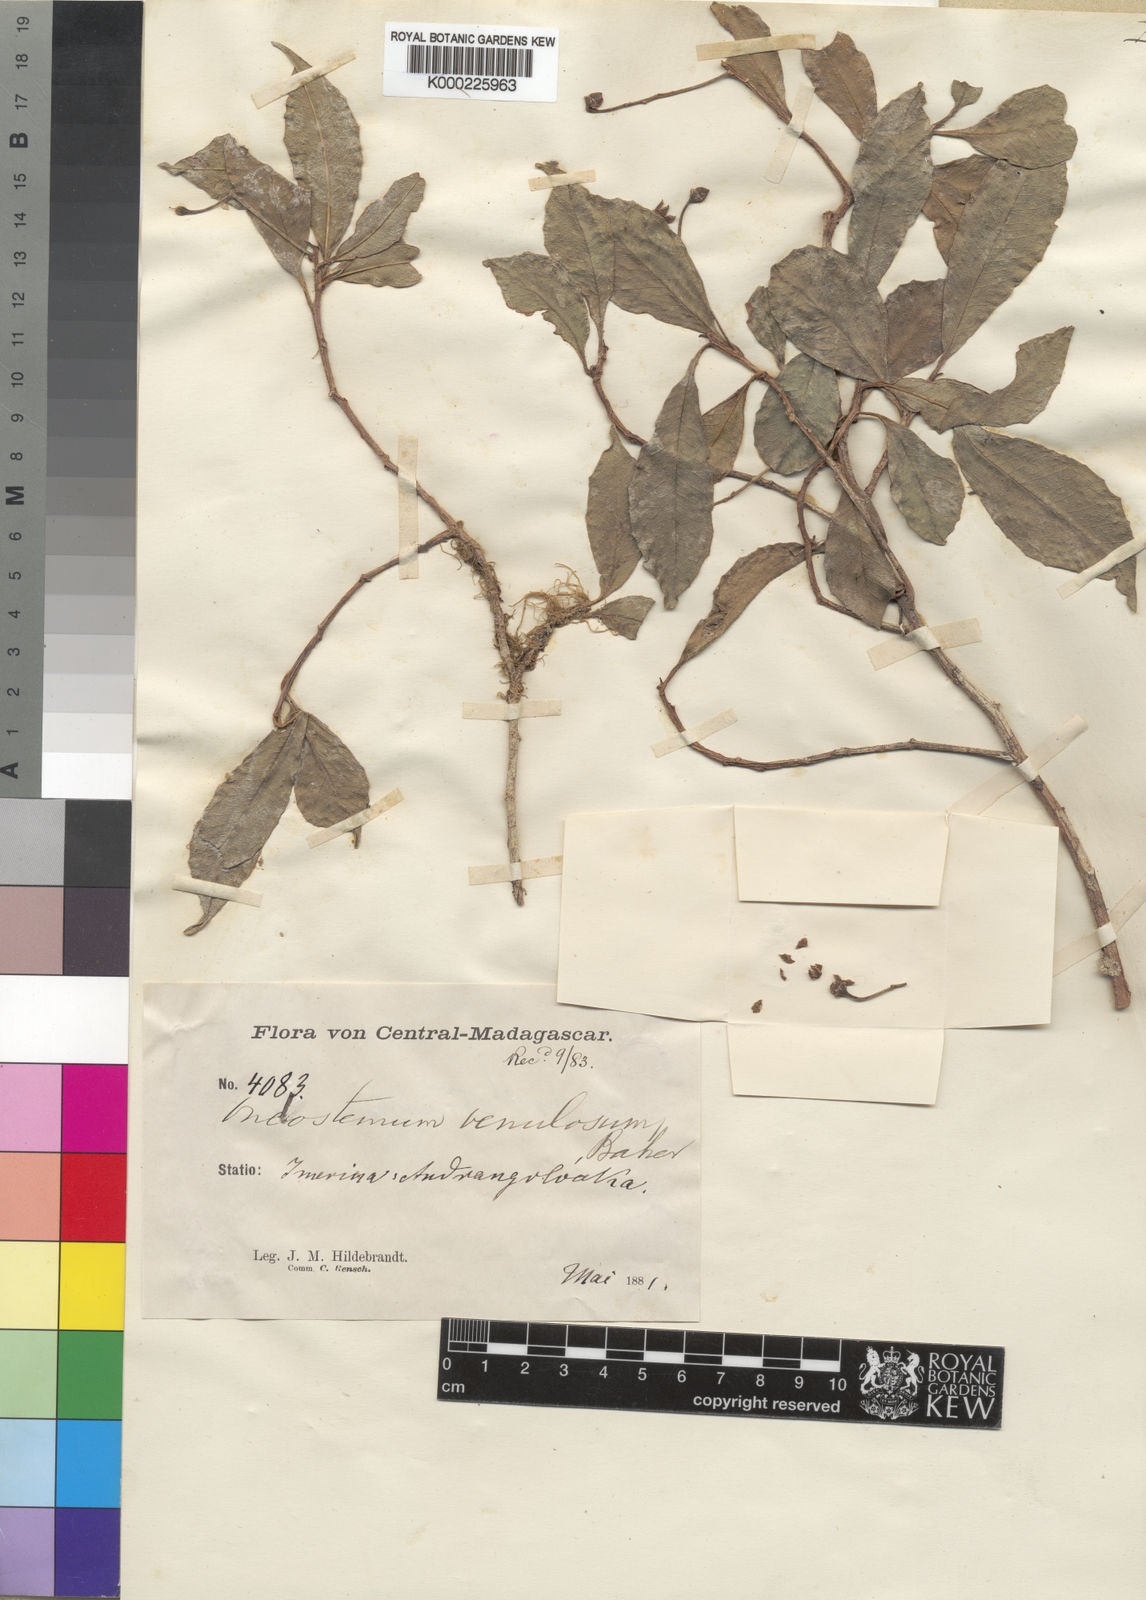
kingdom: Plantae
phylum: Tracheophyta
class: Magnoliopsida
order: Ericales
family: Primulaceae
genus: Oncostemum
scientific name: Oncostemum venulosum
